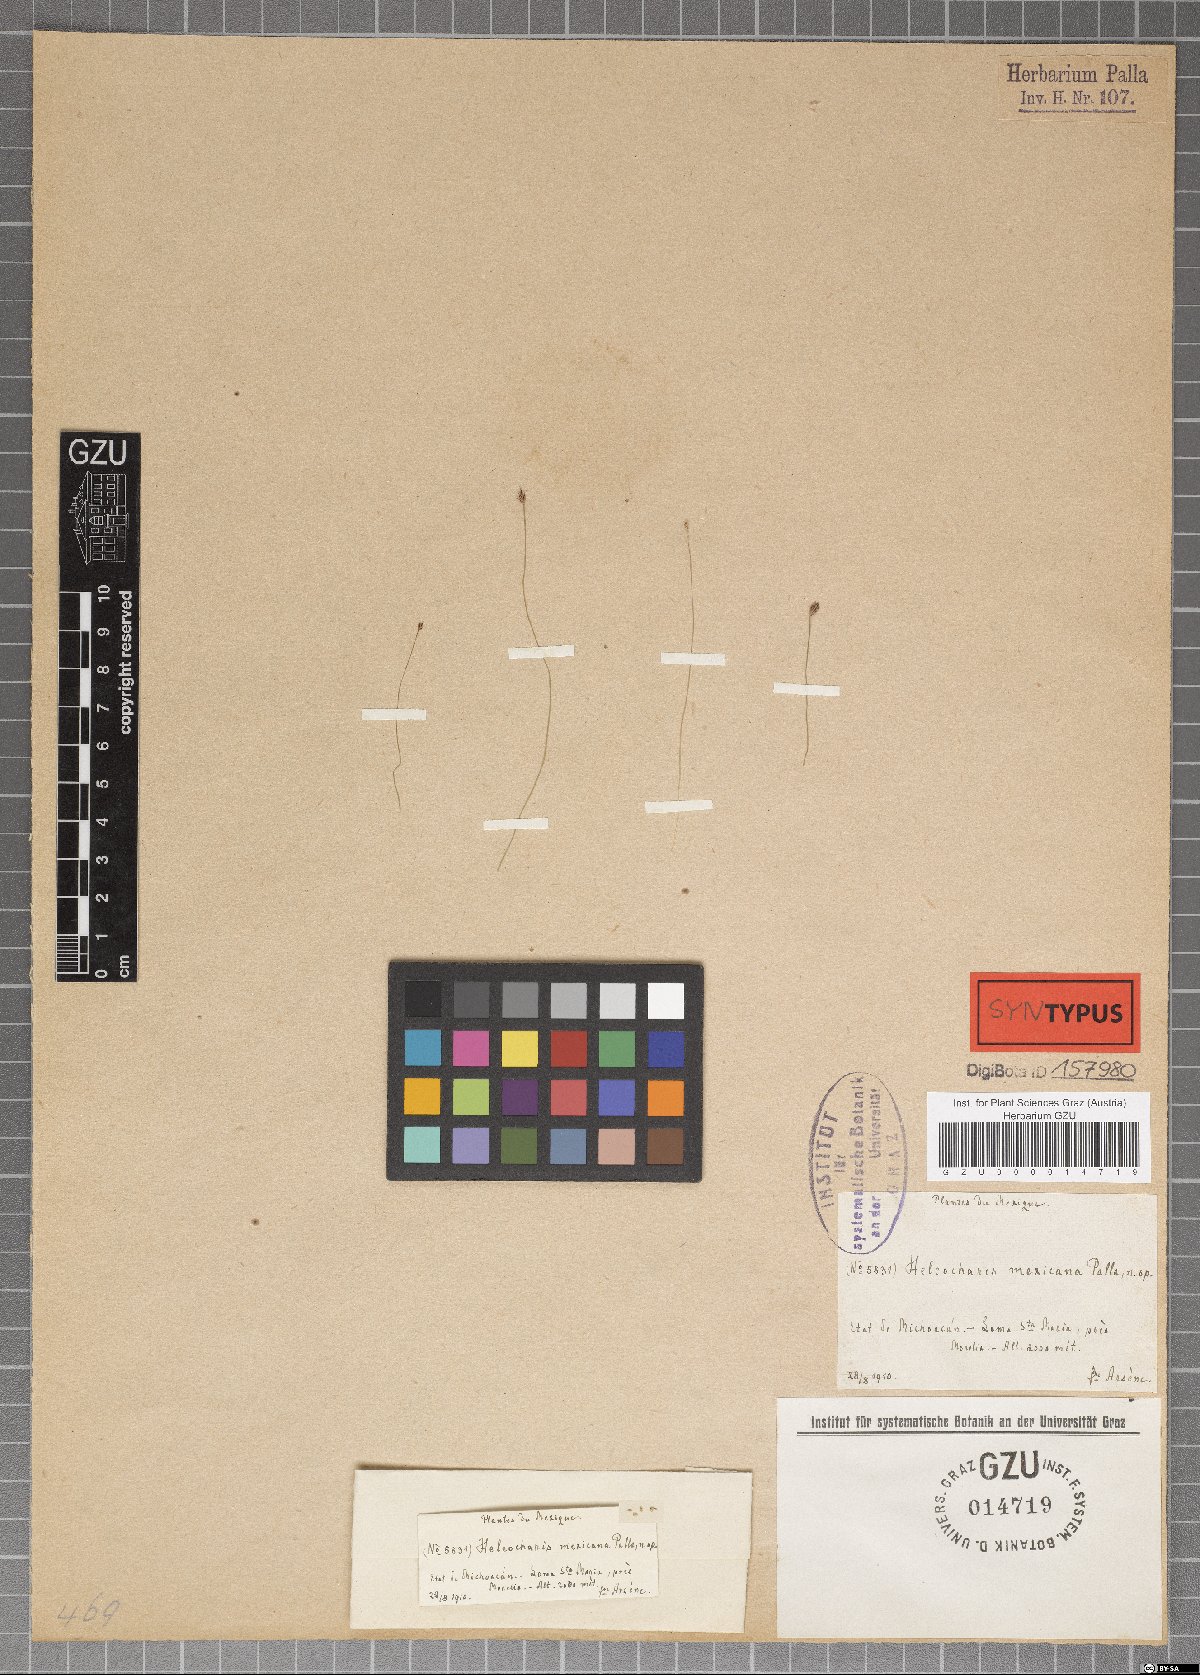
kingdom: Plantae
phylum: Tracheophyta
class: Liliopsida
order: Poales
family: Cyperaceae
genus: Eleocharis
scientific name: Eleocharis elegans
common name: Elegant spike-rush
